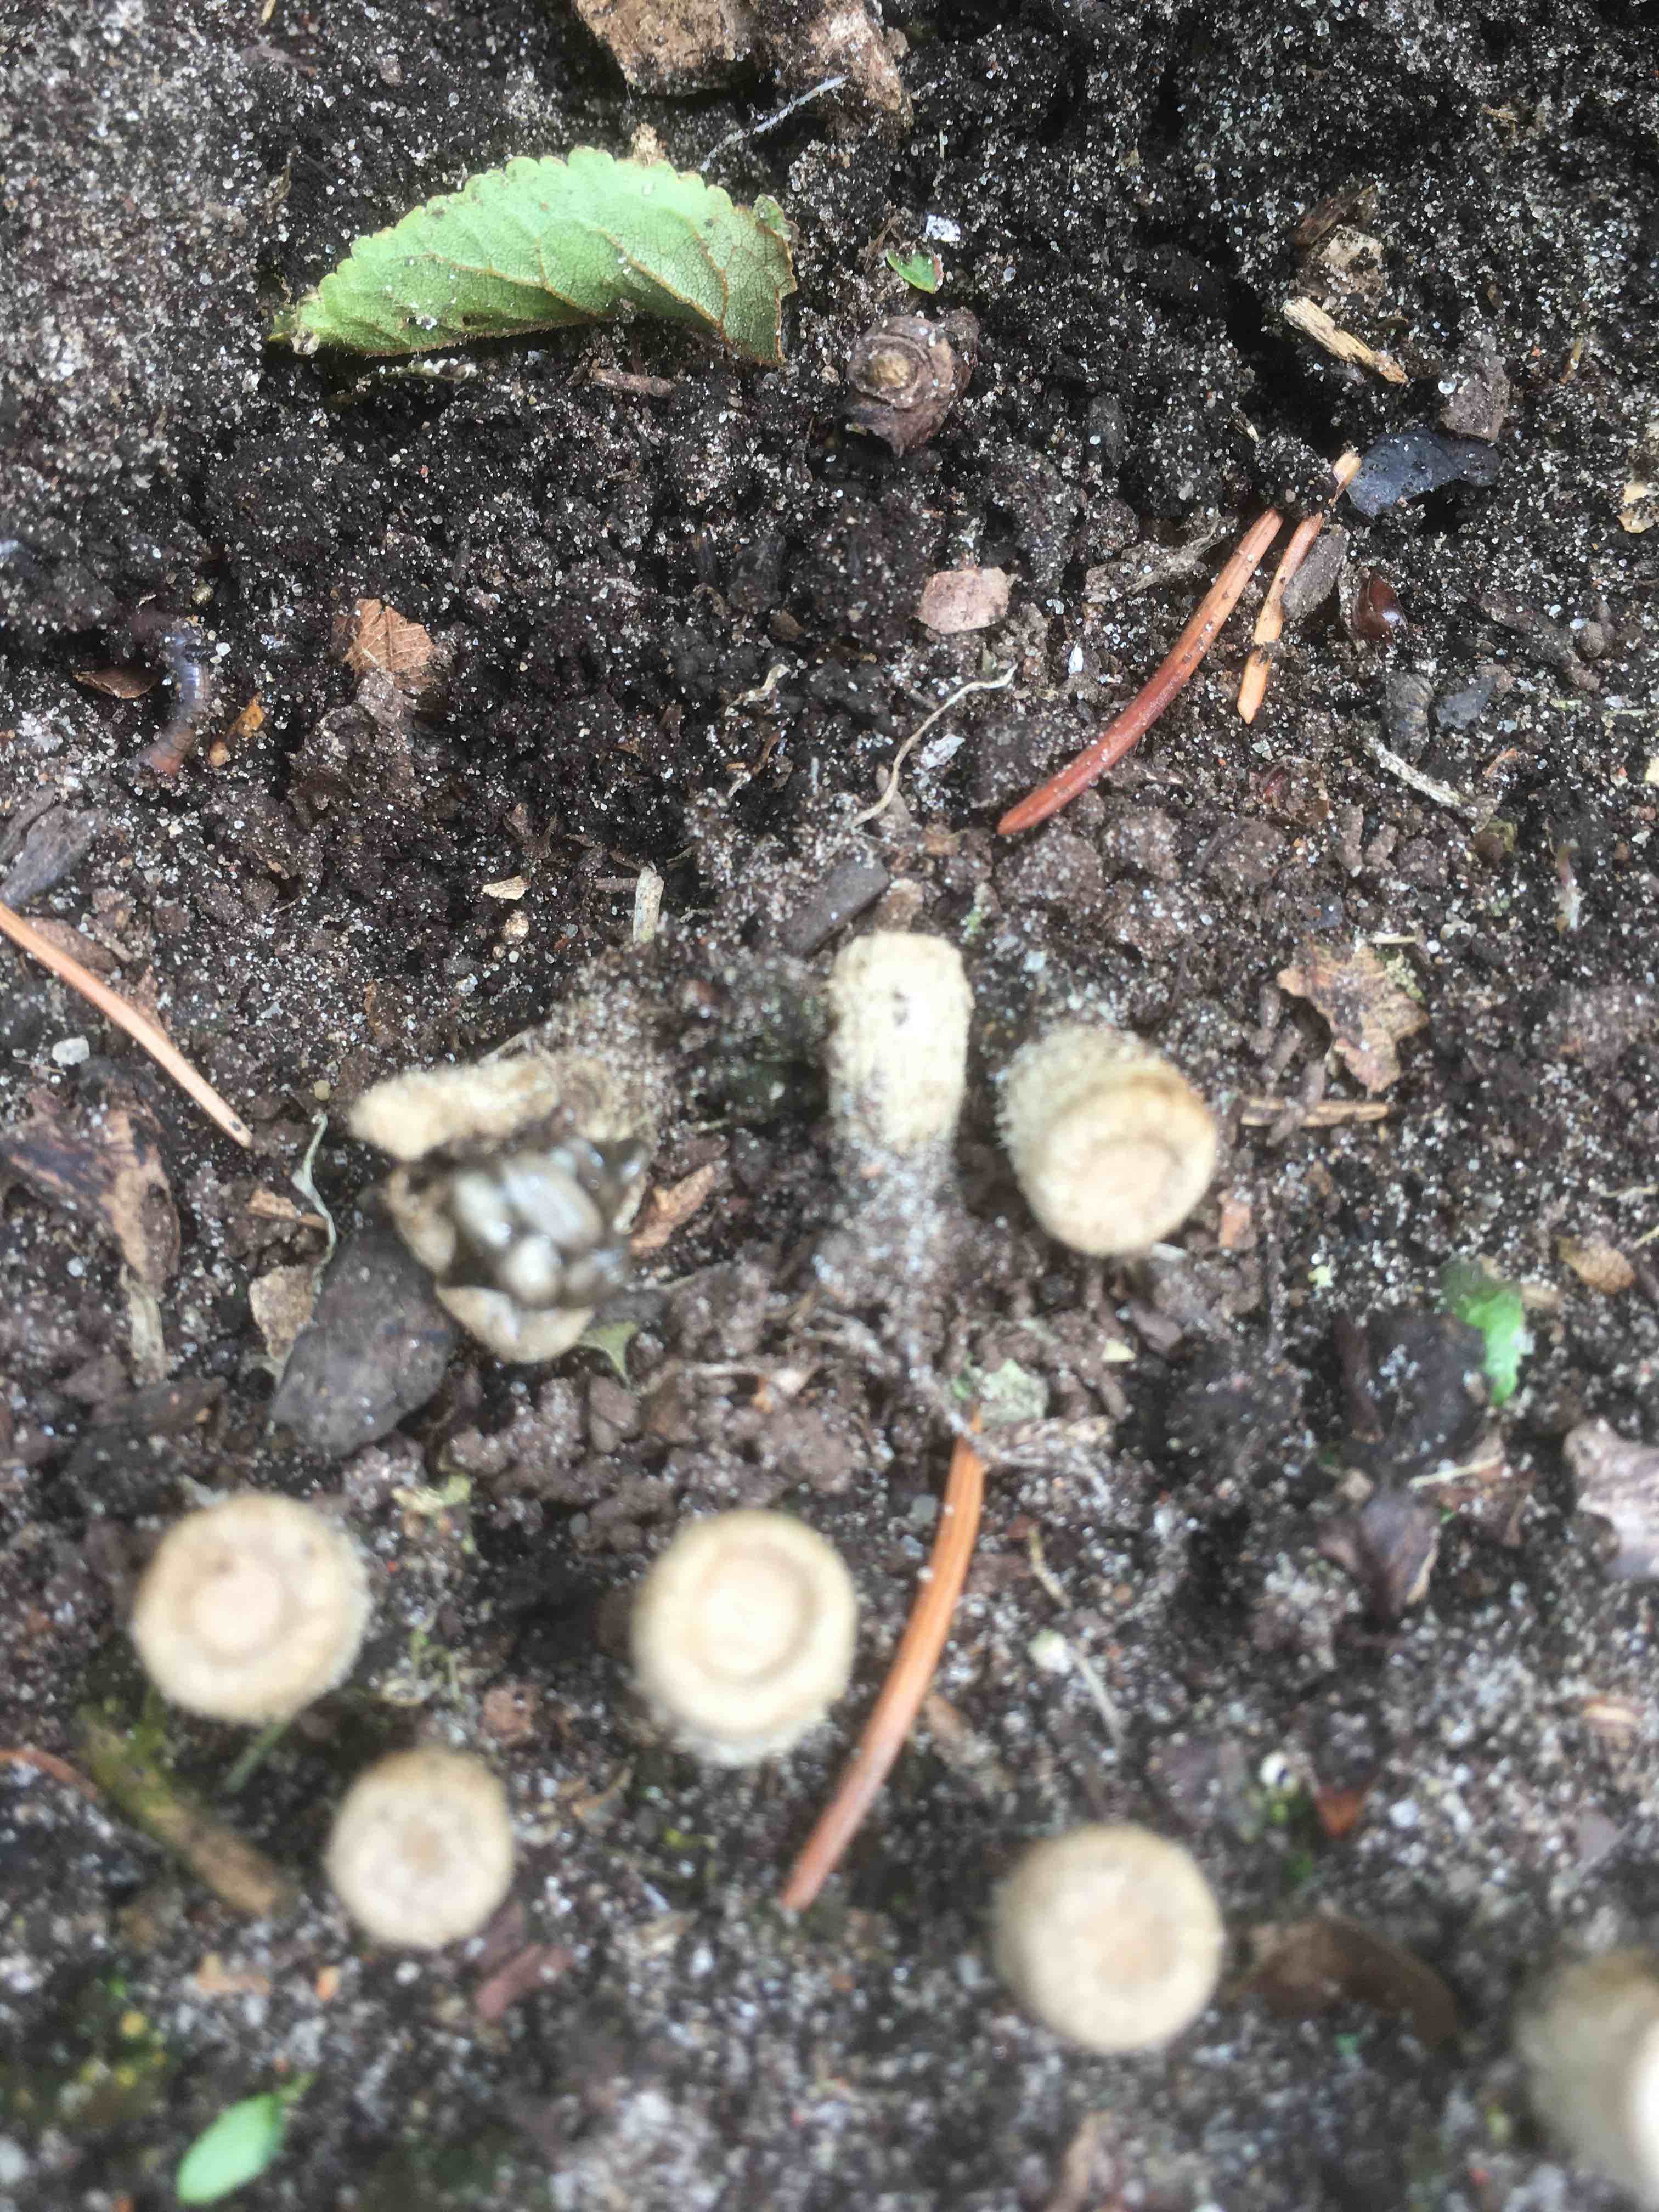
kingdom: Fungi
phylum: Basidiomycota
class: Agaricomycetes
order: Agaricales
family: Agaricaceae
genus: Cyathus
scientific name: Cyathus olla
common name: klokke-redesvamp
